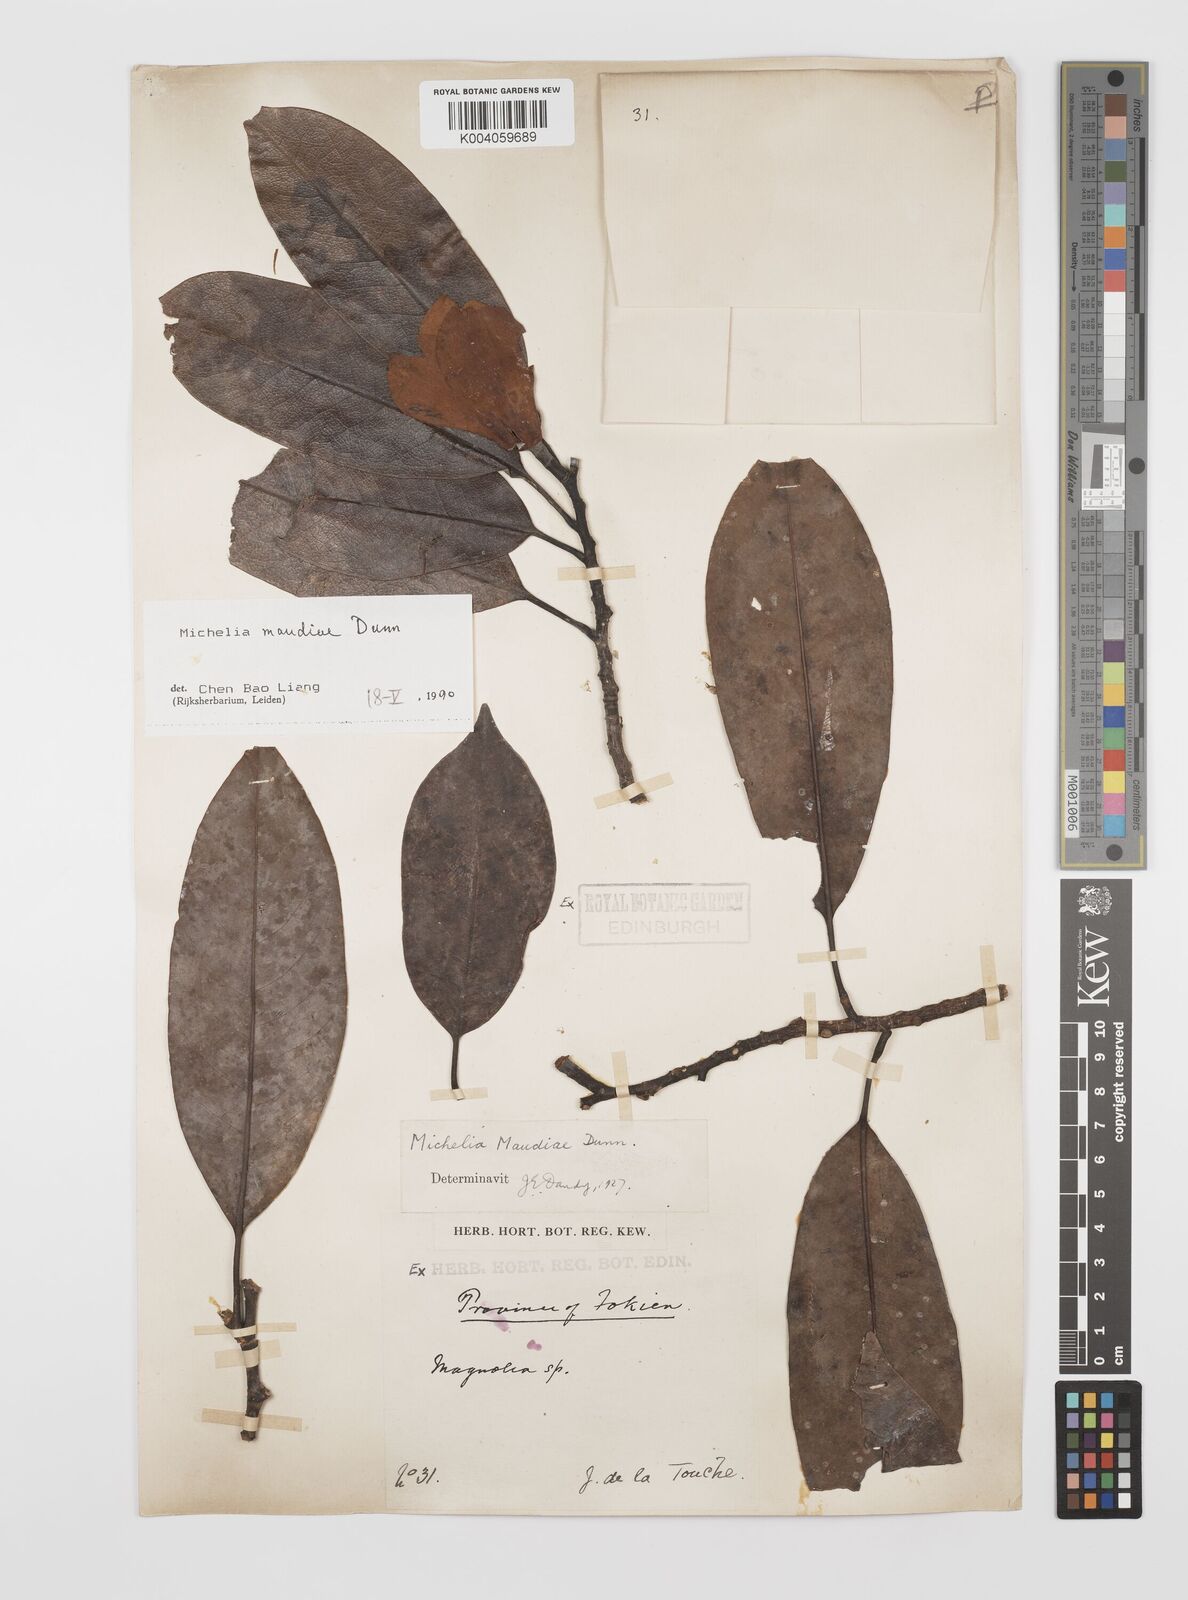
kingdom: Plantae
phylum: Tracheophyta
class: Magnoliopsida
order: Magnoliales
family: Magnoliaceae
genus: Magnolia
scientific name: Magnolia maudiae
